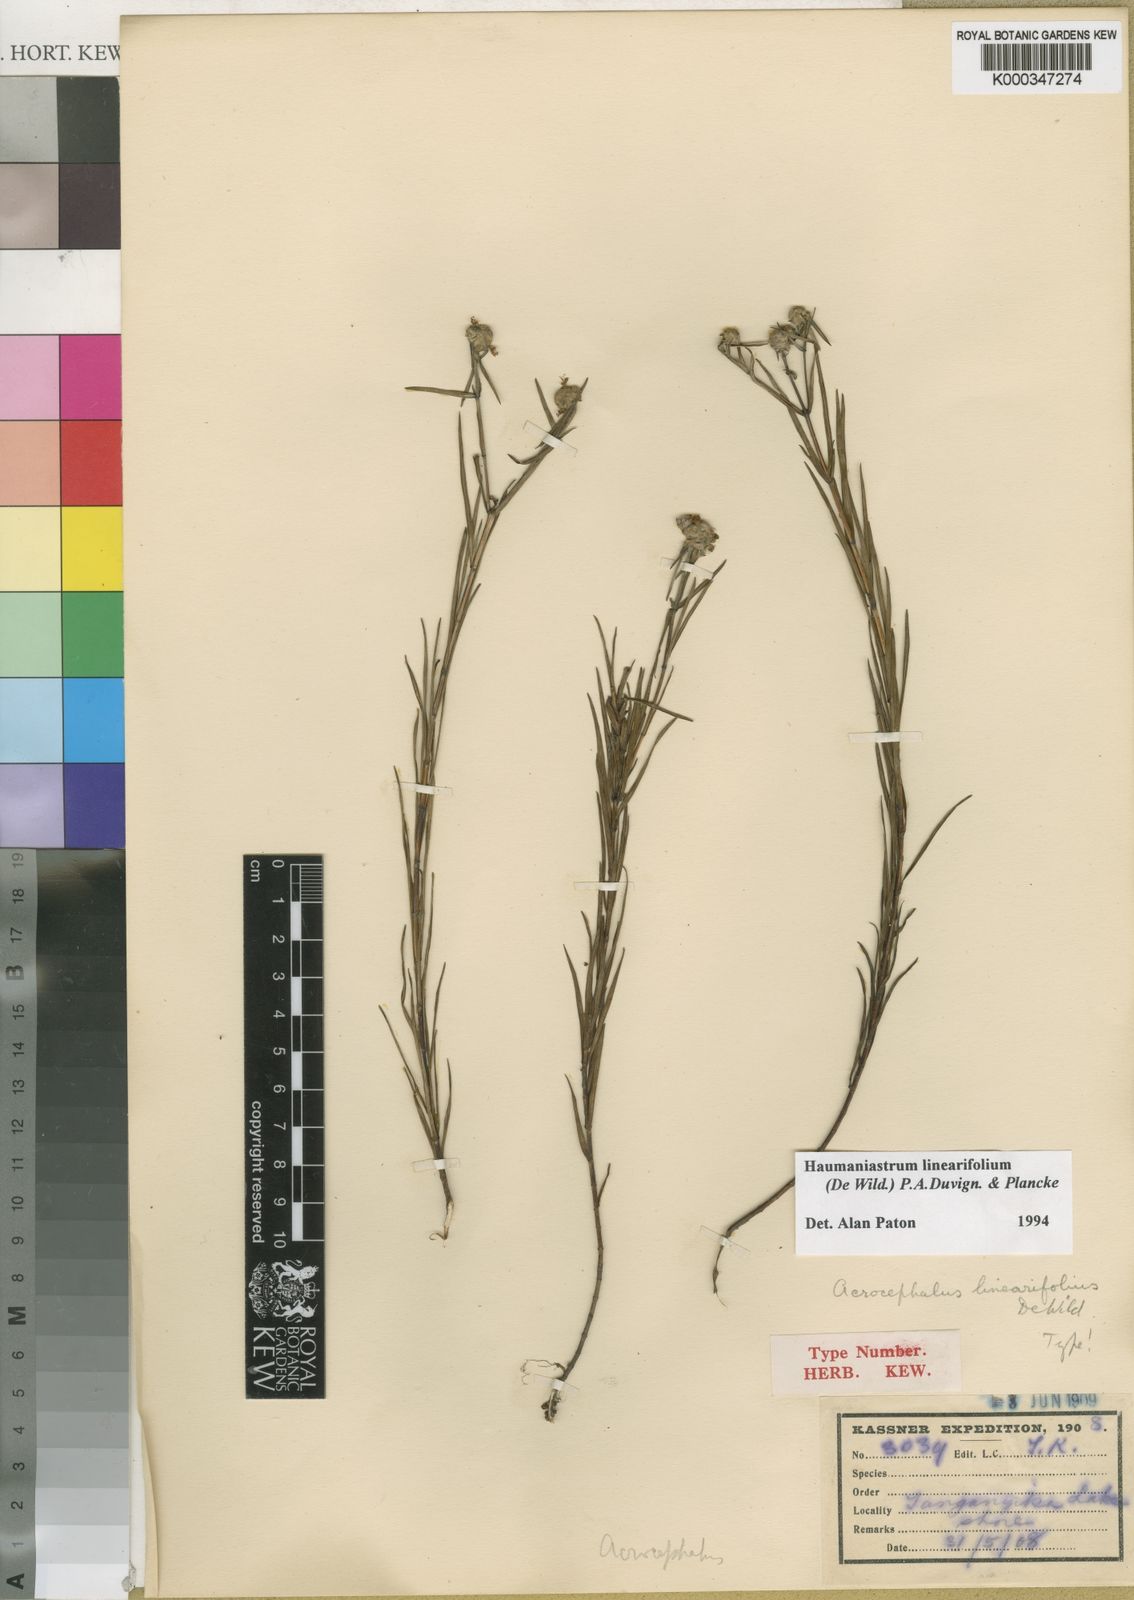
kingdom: Plantae
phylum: Tracheophyta
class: Magnoliopsida
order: Lamiales
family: Lamiaceae
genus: Haumaniastrum
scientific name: Haumaniastrum linearifolium
